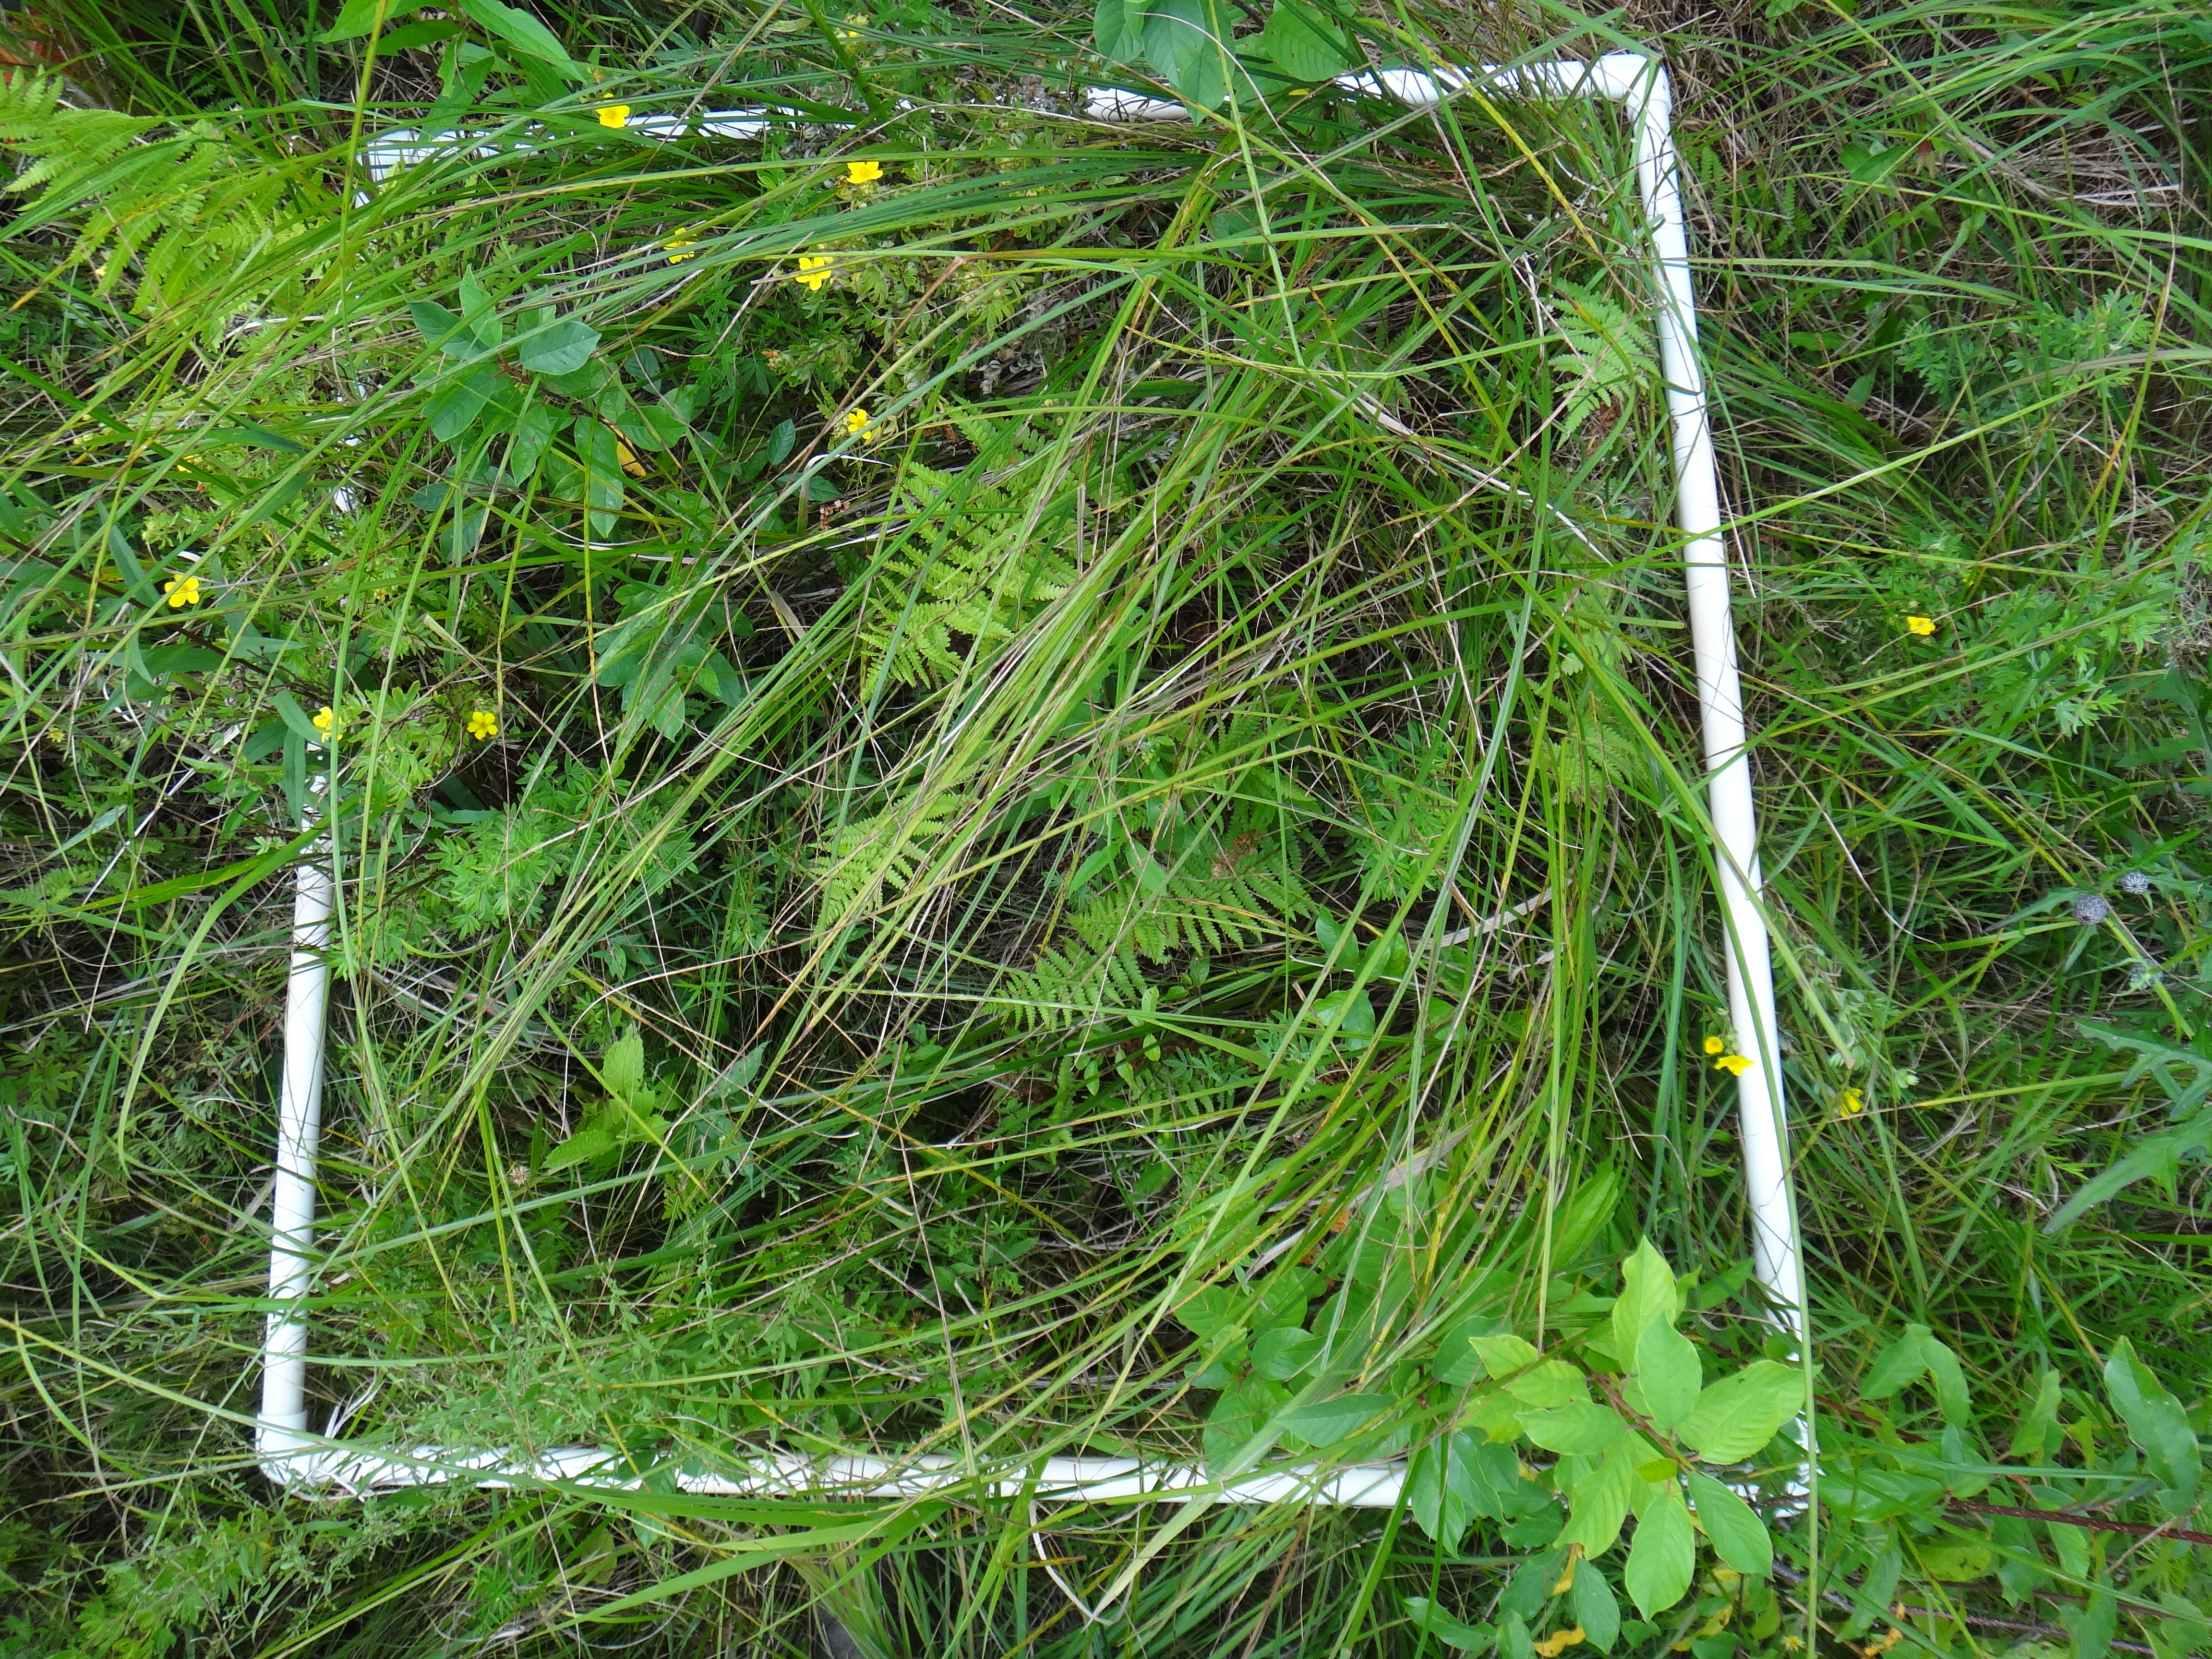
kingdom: Plantae
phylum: Tracheophyta
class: Magnoliopsida
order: Asterales
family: Asteraceae
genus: Solidago
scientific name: Solidago patula
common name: Rough-leaf goldenrod
